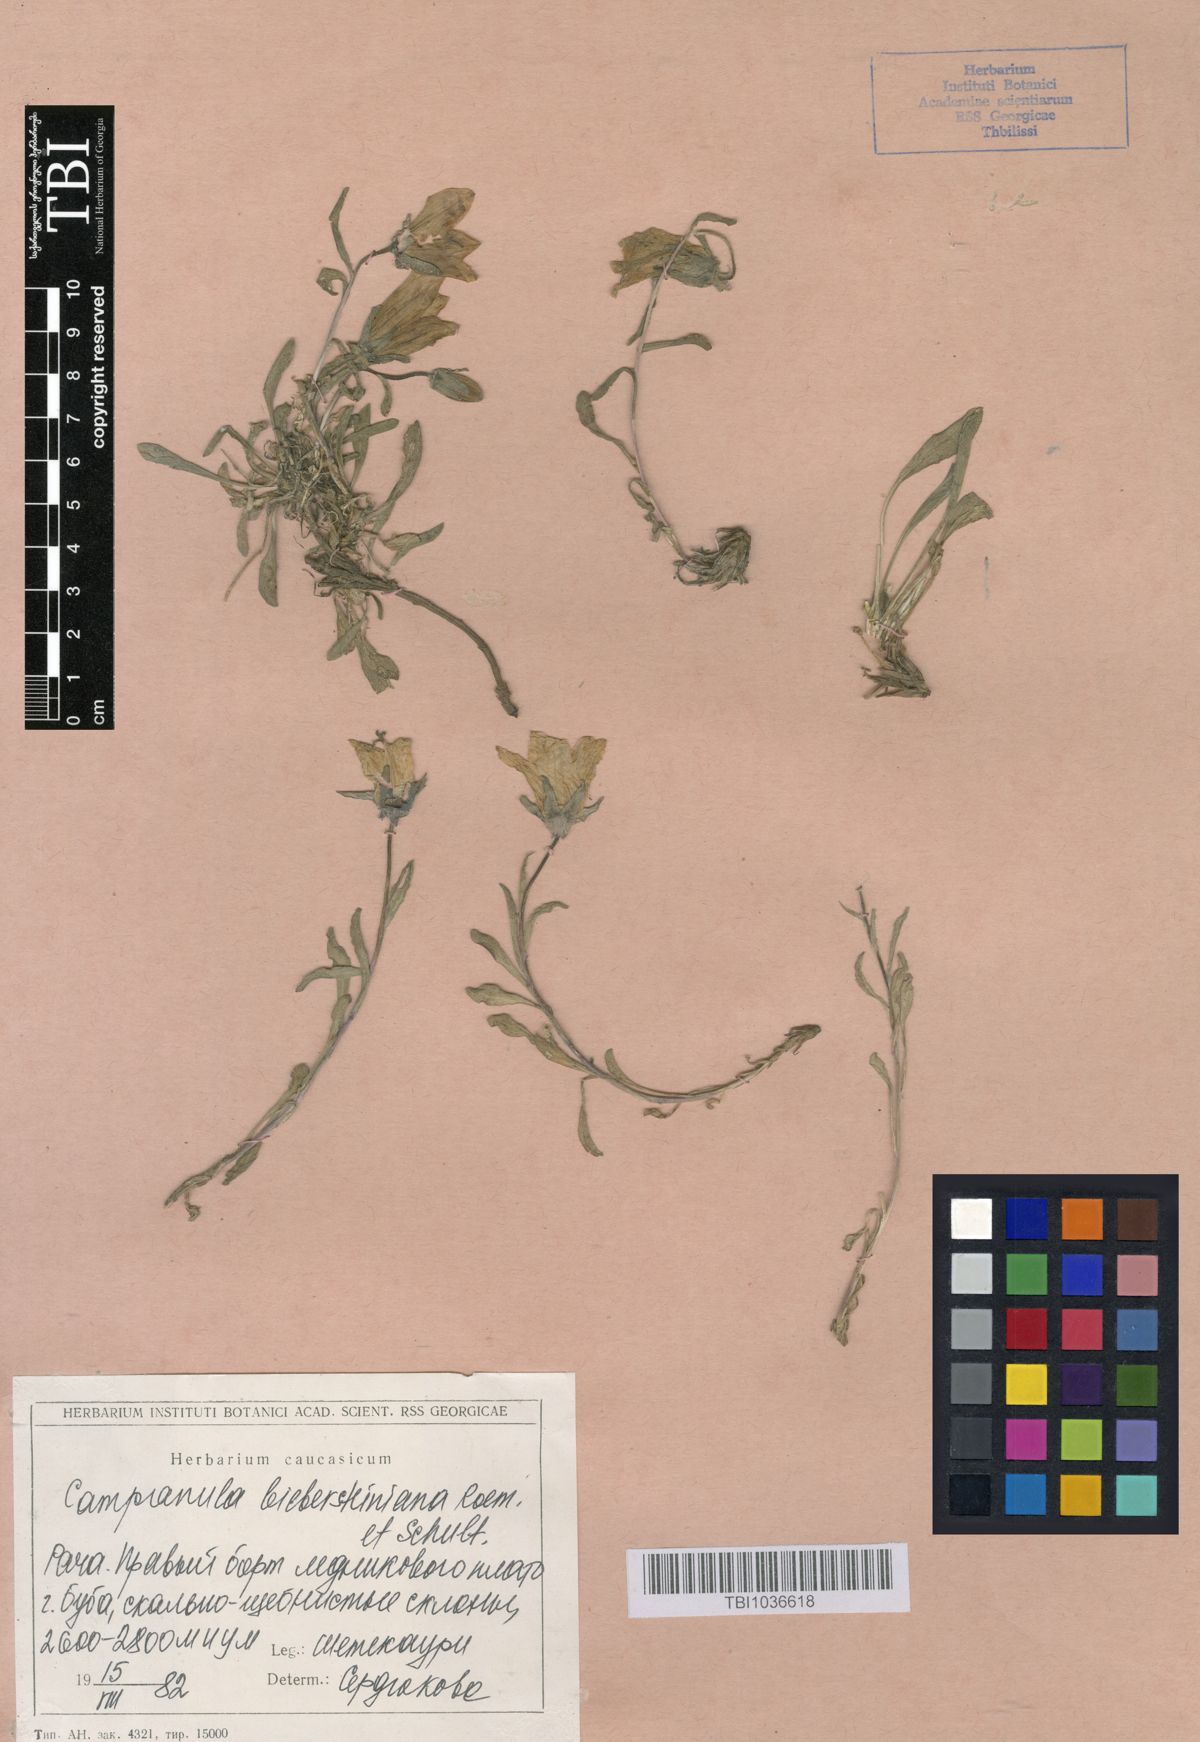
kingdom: Plantae
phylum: Tracheophyta
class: Magnoliopsida
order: Asterales
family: Campanulaceae
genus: Campanula
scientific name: Campanula tridentata
